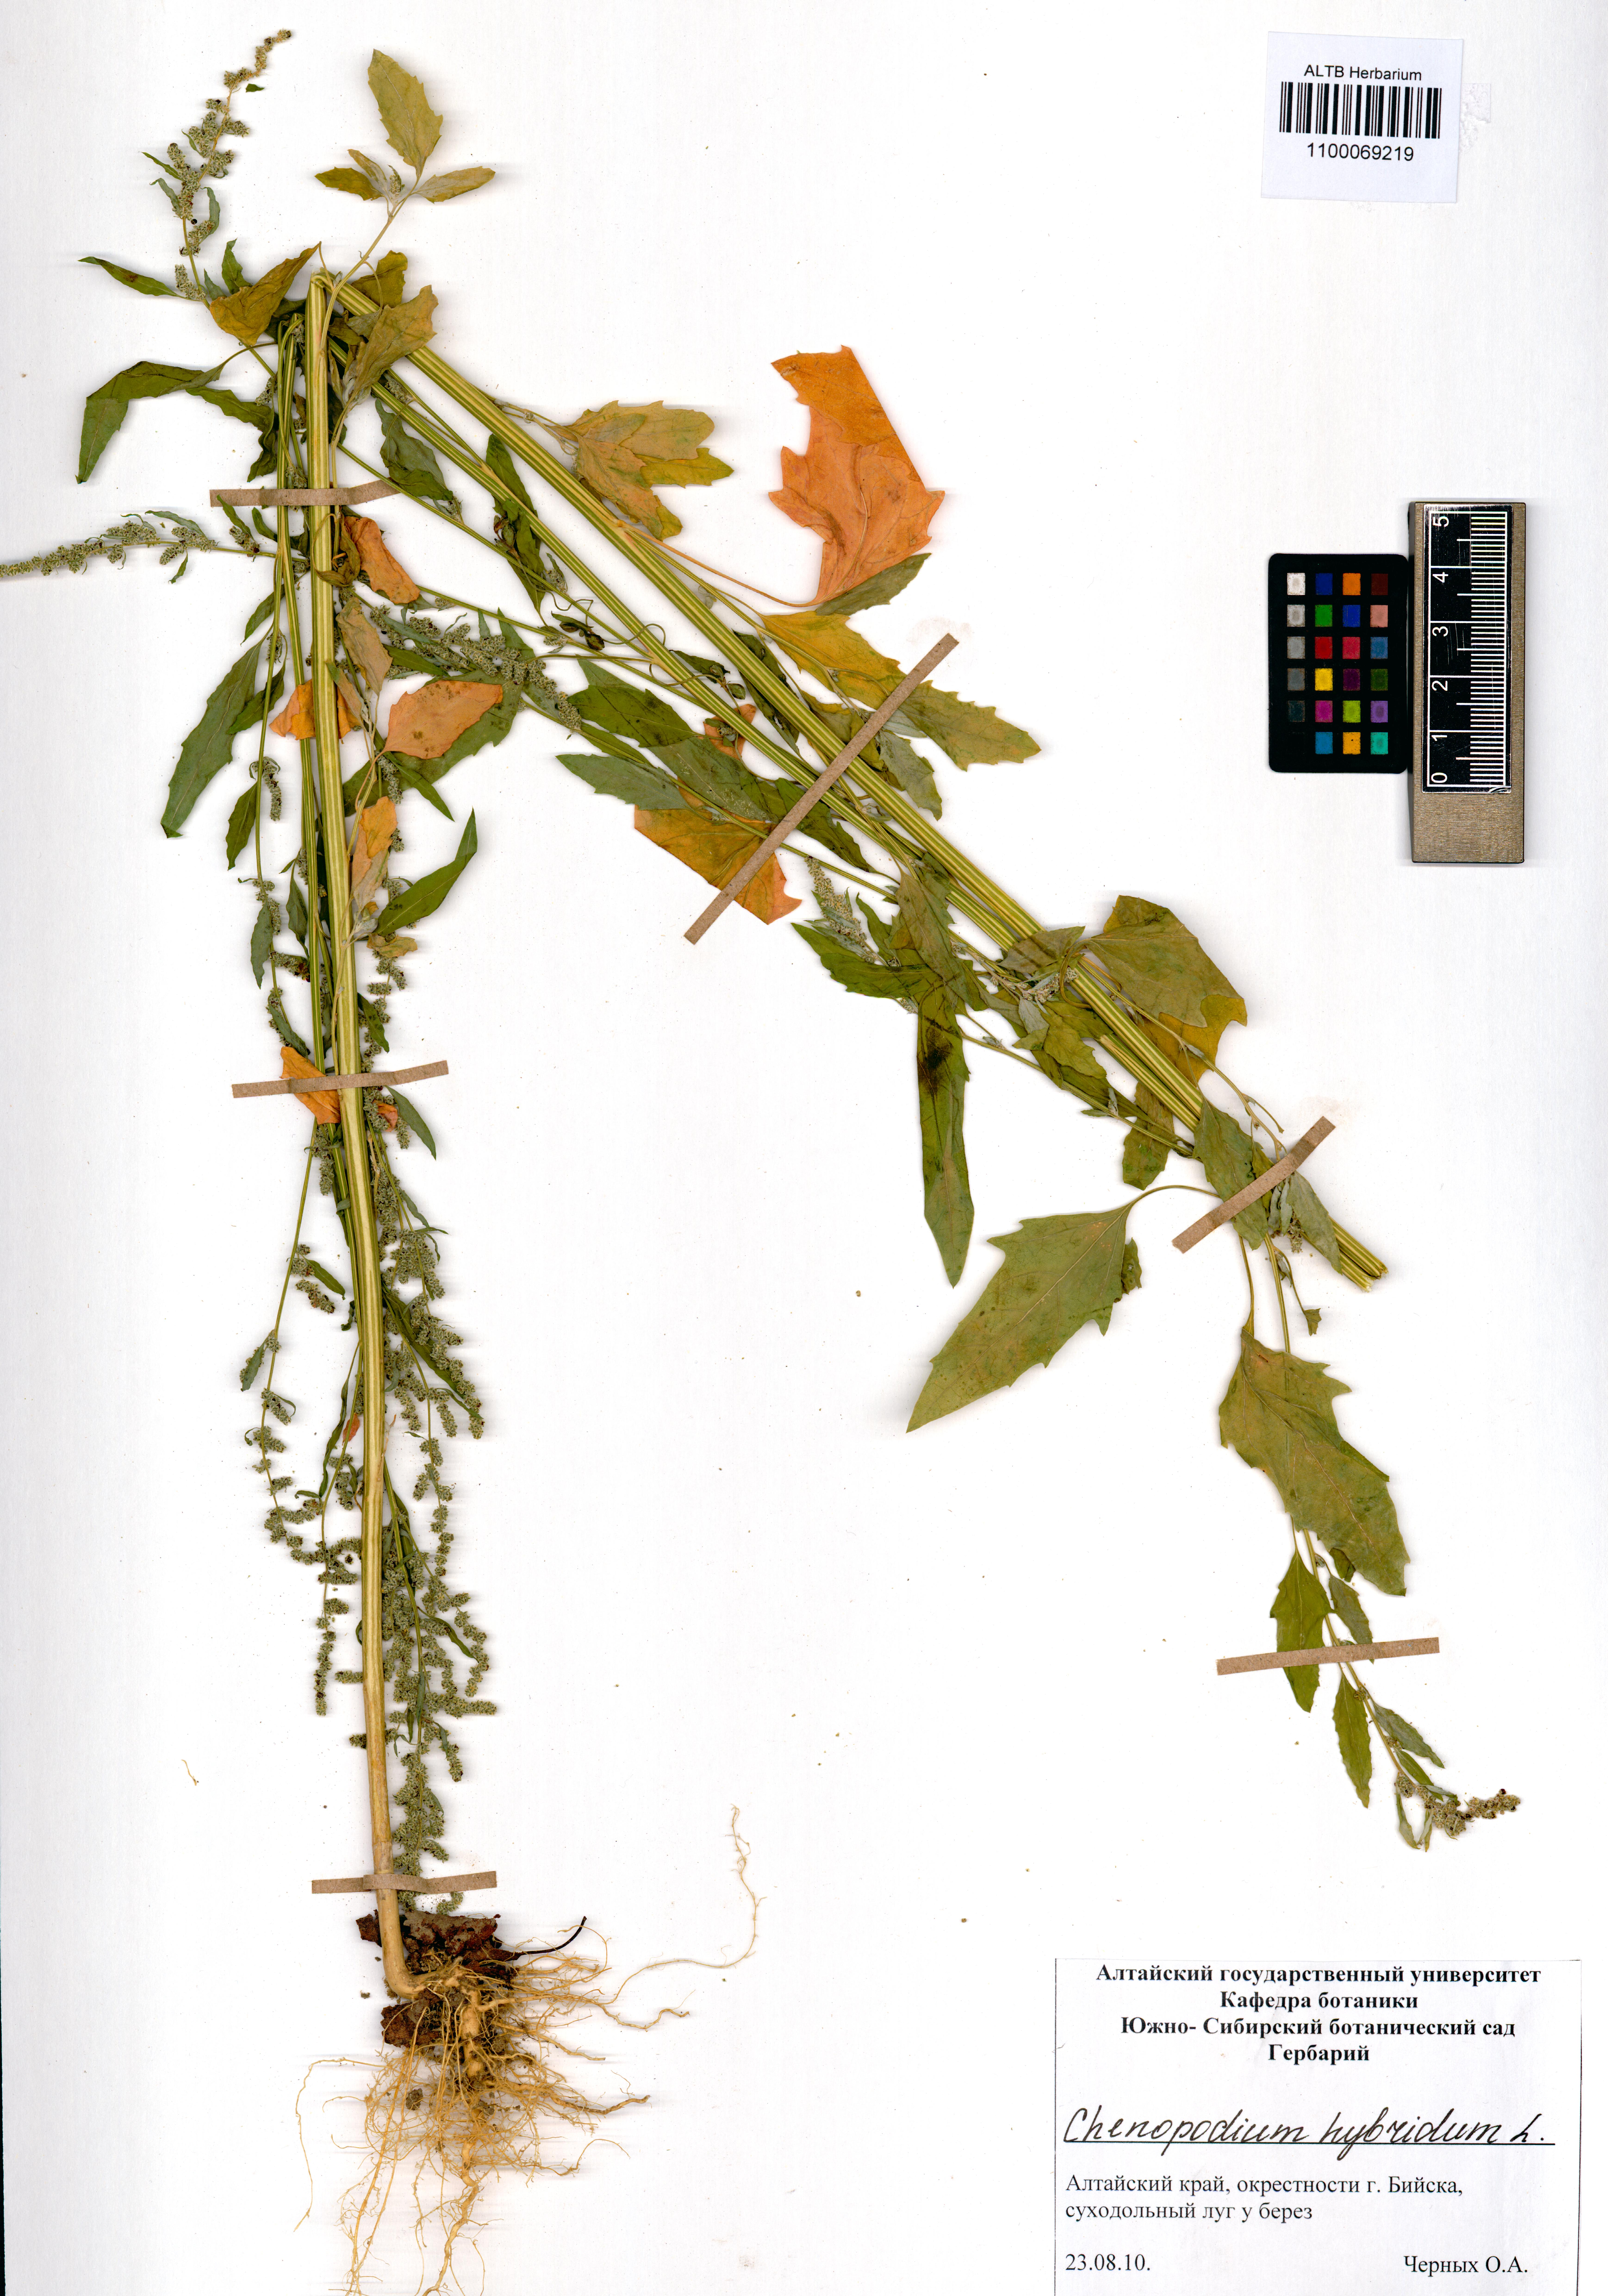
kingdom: Plantae
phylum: Tracheophyta
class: Magnoliopsida
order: Caryophyllales
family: Amaranthaceae
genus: Chenopodiastrum
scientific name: Chenopodiastrum hybridum
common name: Mapleleaf goosefoot
